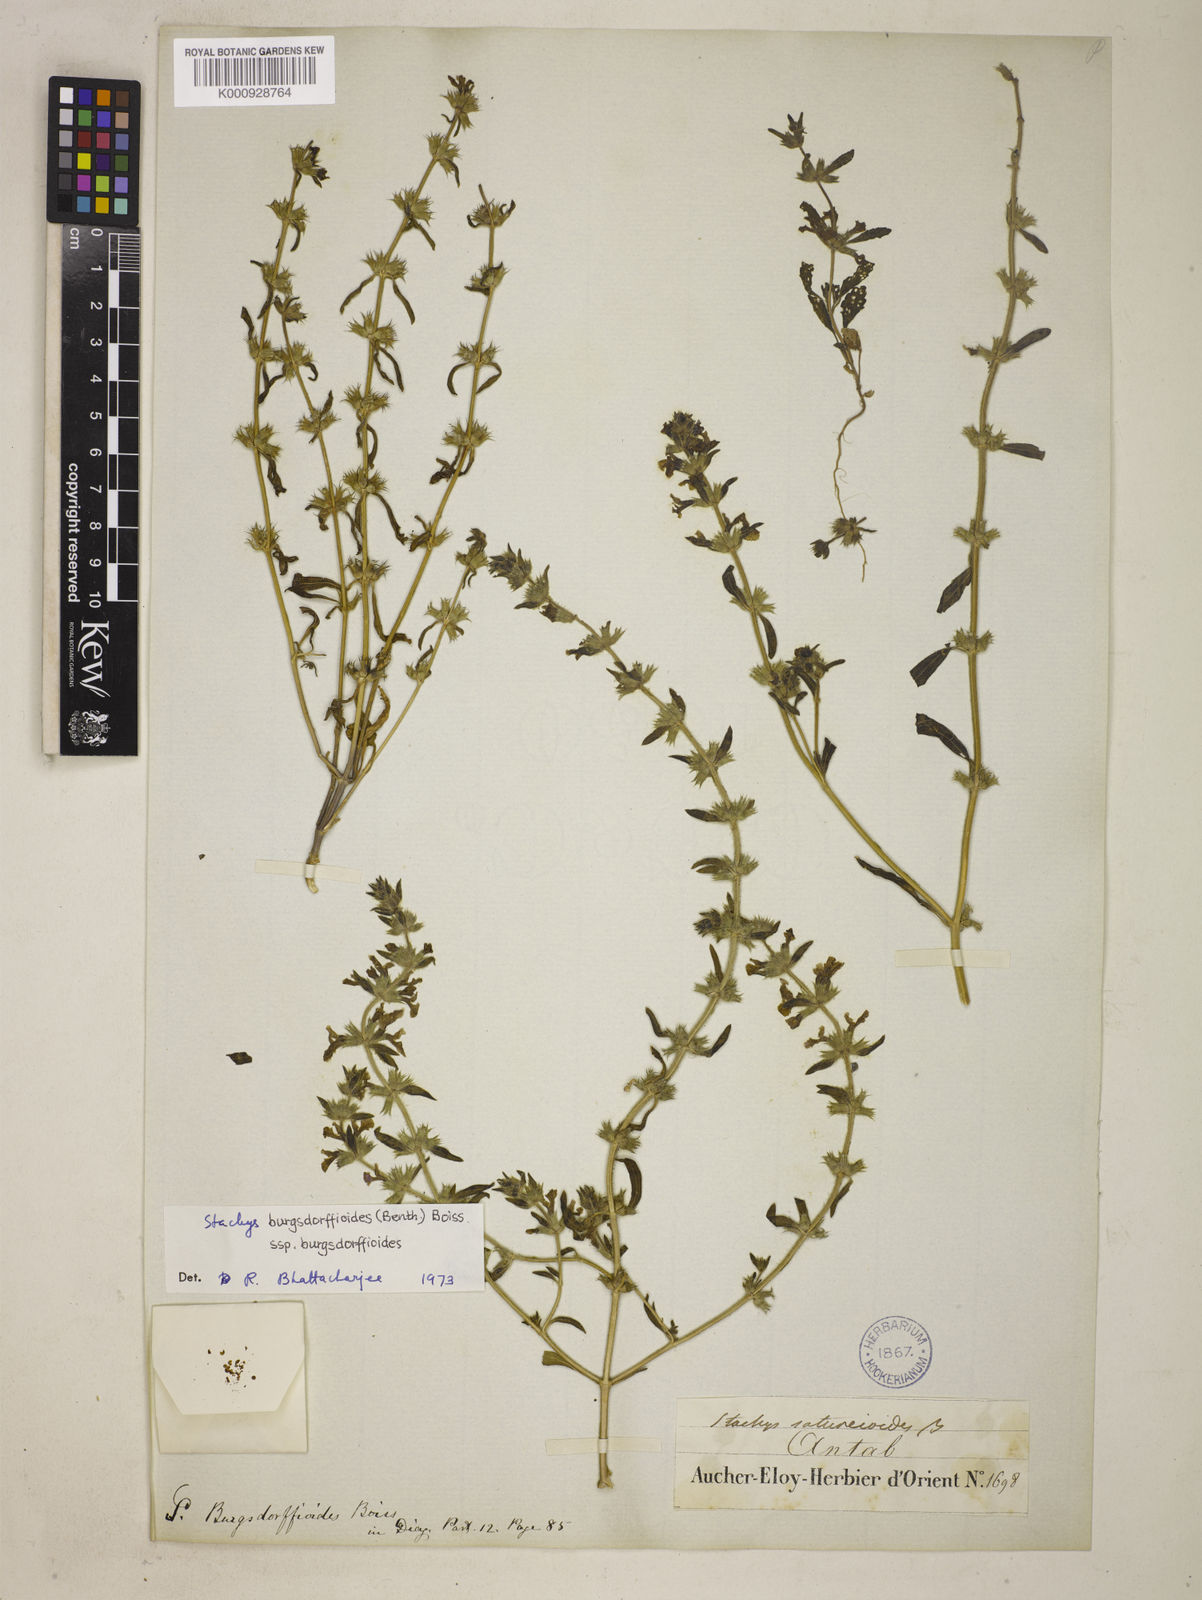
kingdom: Plantae
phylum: Tracheophyta
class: Magnoliopsida
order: Lamiales
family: Lamiaceae
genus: Stachys
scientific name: Stachys burgsdorffioides
